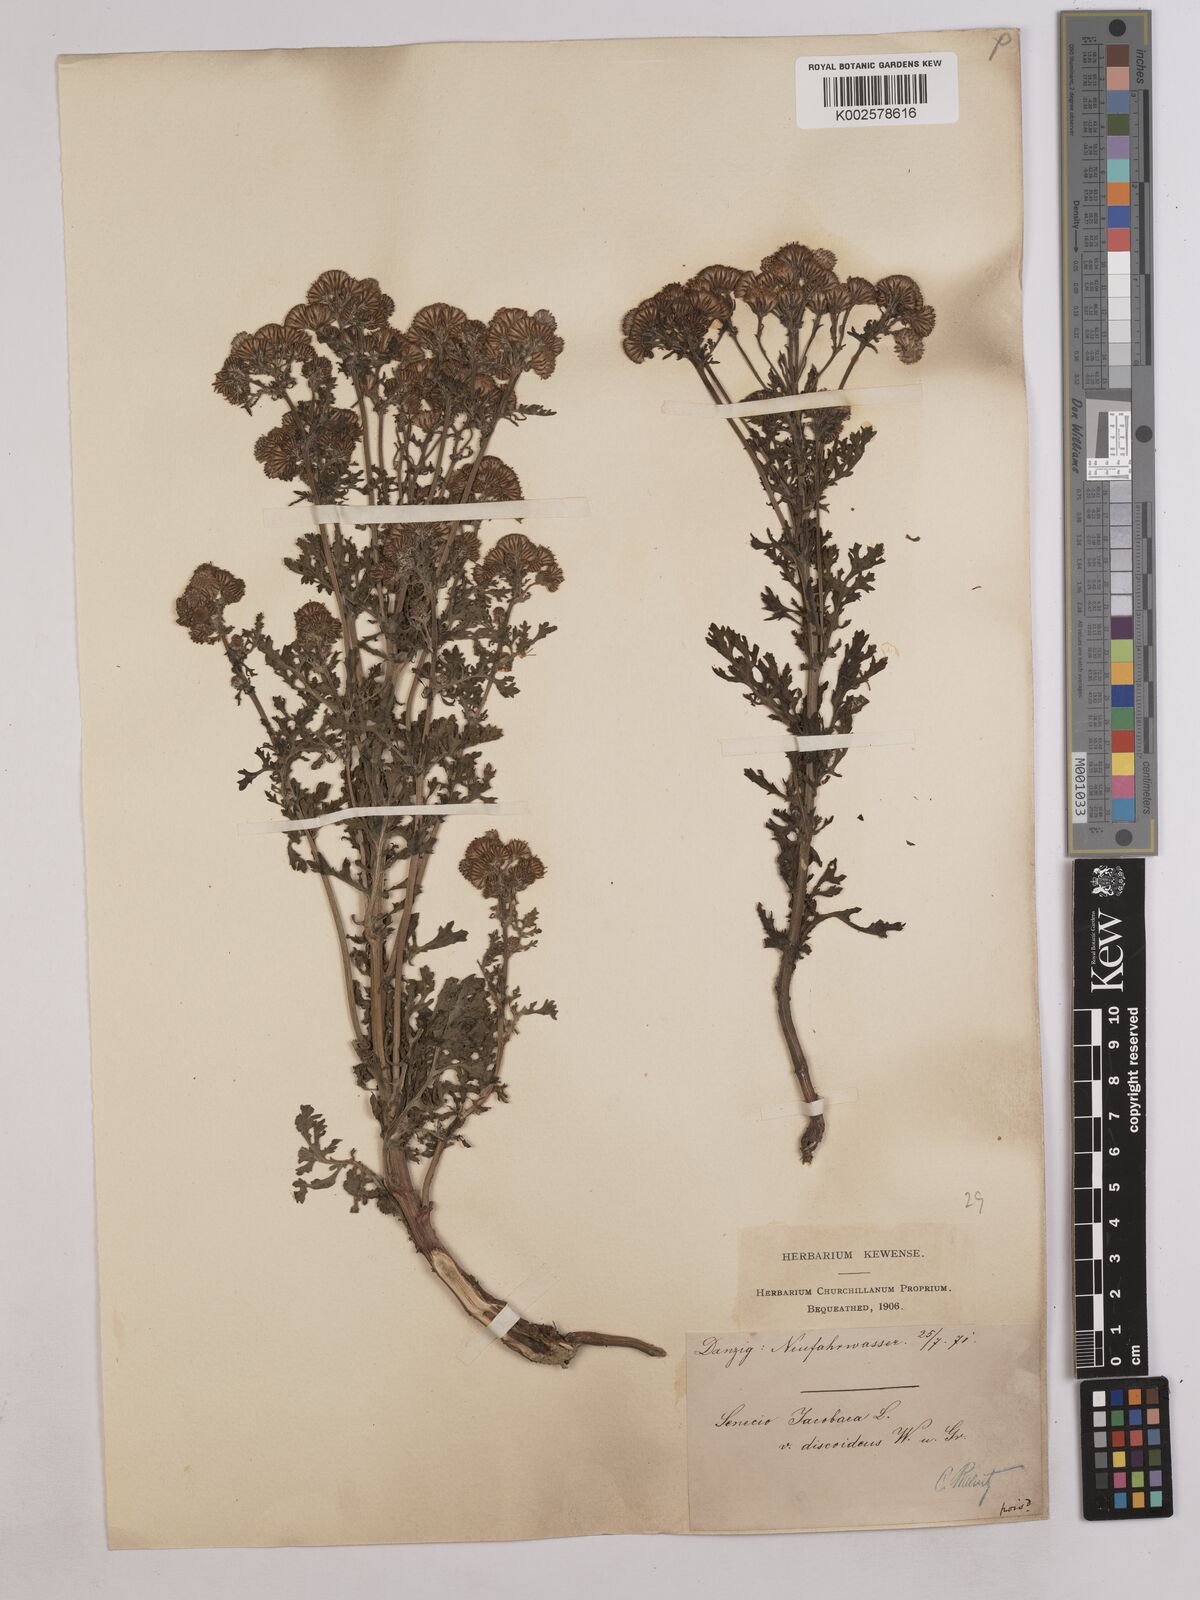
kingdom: Plantae
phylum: Tracheophyta
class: Magnoliopsida
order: Asterales
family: Asteraceae
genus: Jacobaea
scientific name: Jacobaea vulgaris
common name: Stinking willie
